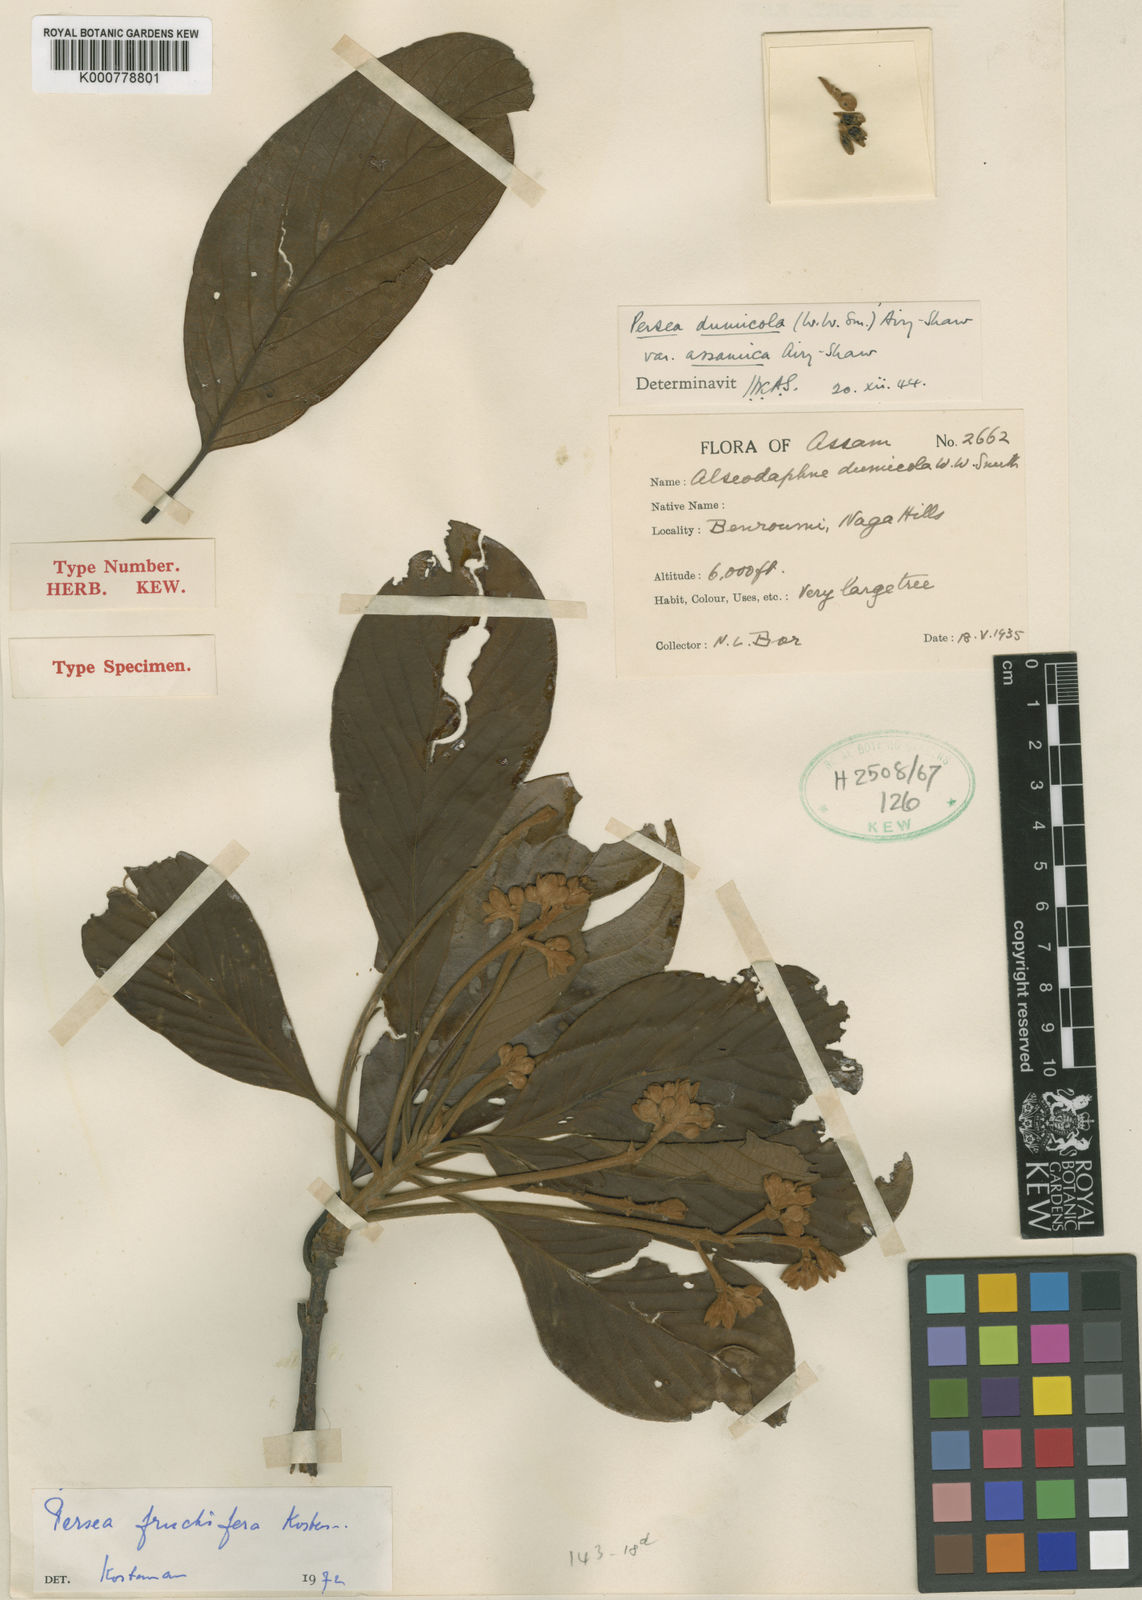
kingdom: Plantae
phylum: Tracheophyta
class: Magnoliopsida
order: Laurales
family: Lauraceae
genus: Persea
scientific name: Persea
